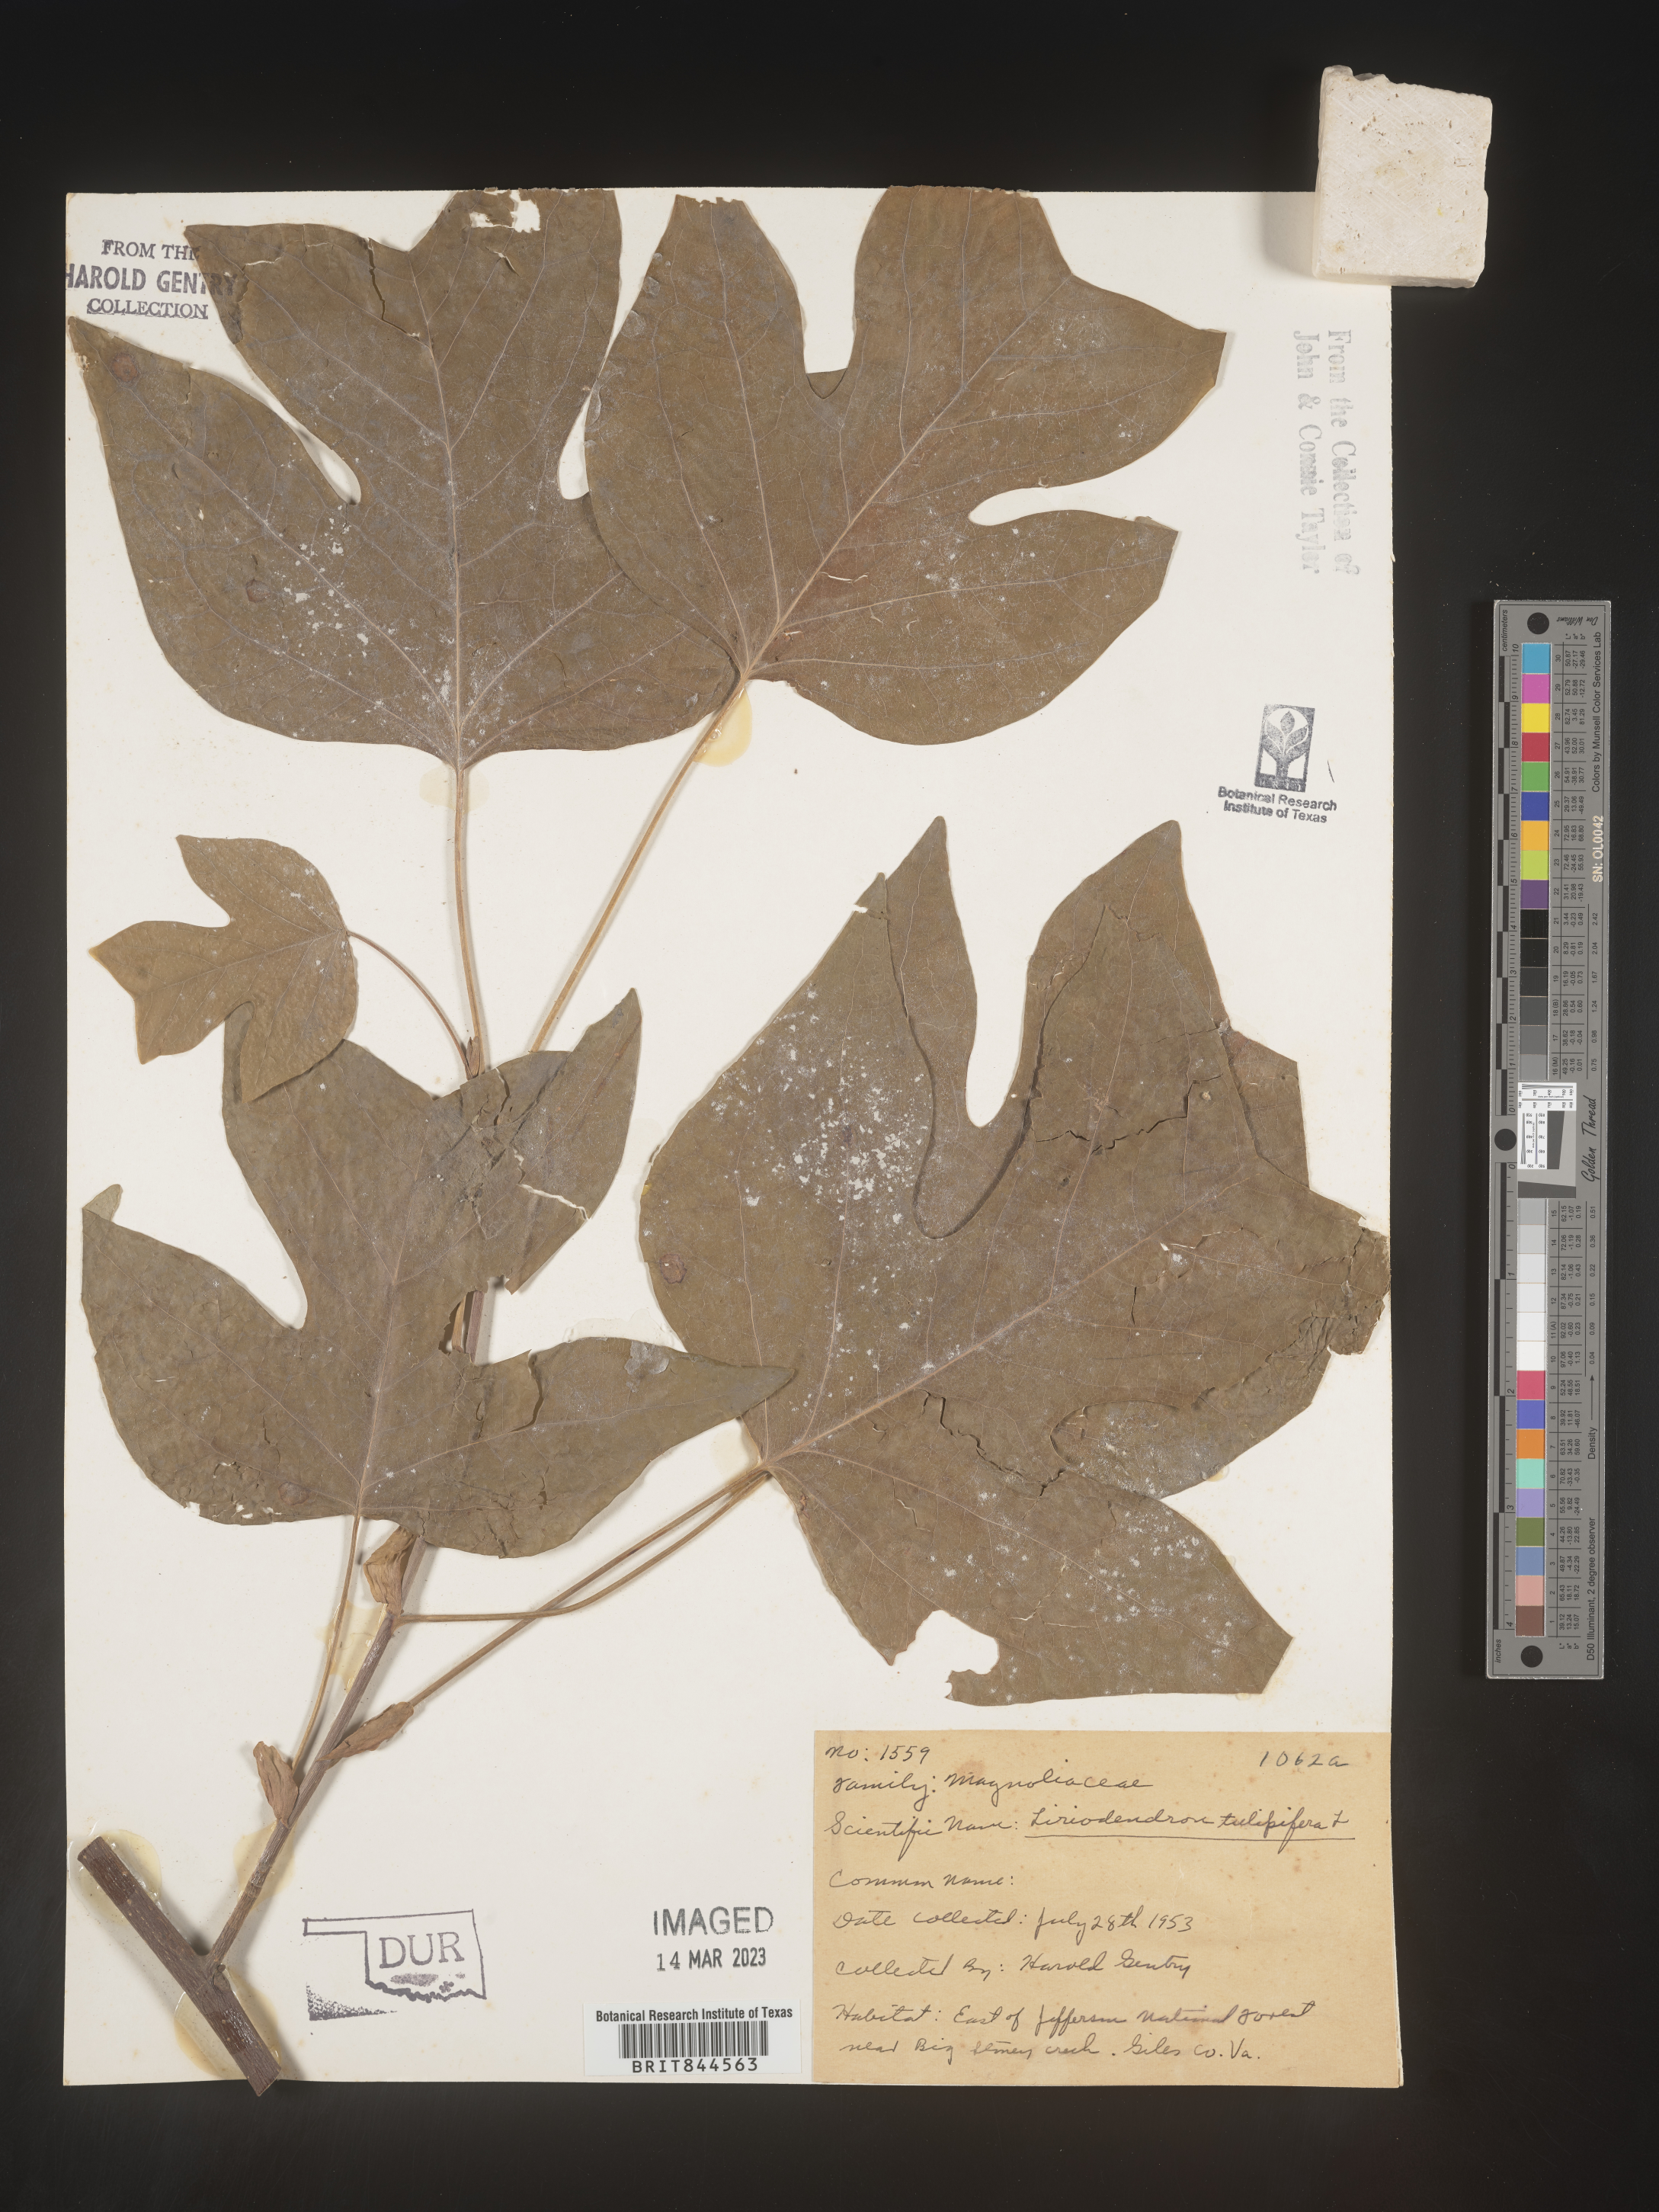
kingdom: Plantae
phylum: Tracheophyta
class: Magnoliopsida
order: Magnoliales
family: Magnoliaceae
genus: Liriodendron
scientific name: Liriodendron tulipifera
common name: Tulip tree
